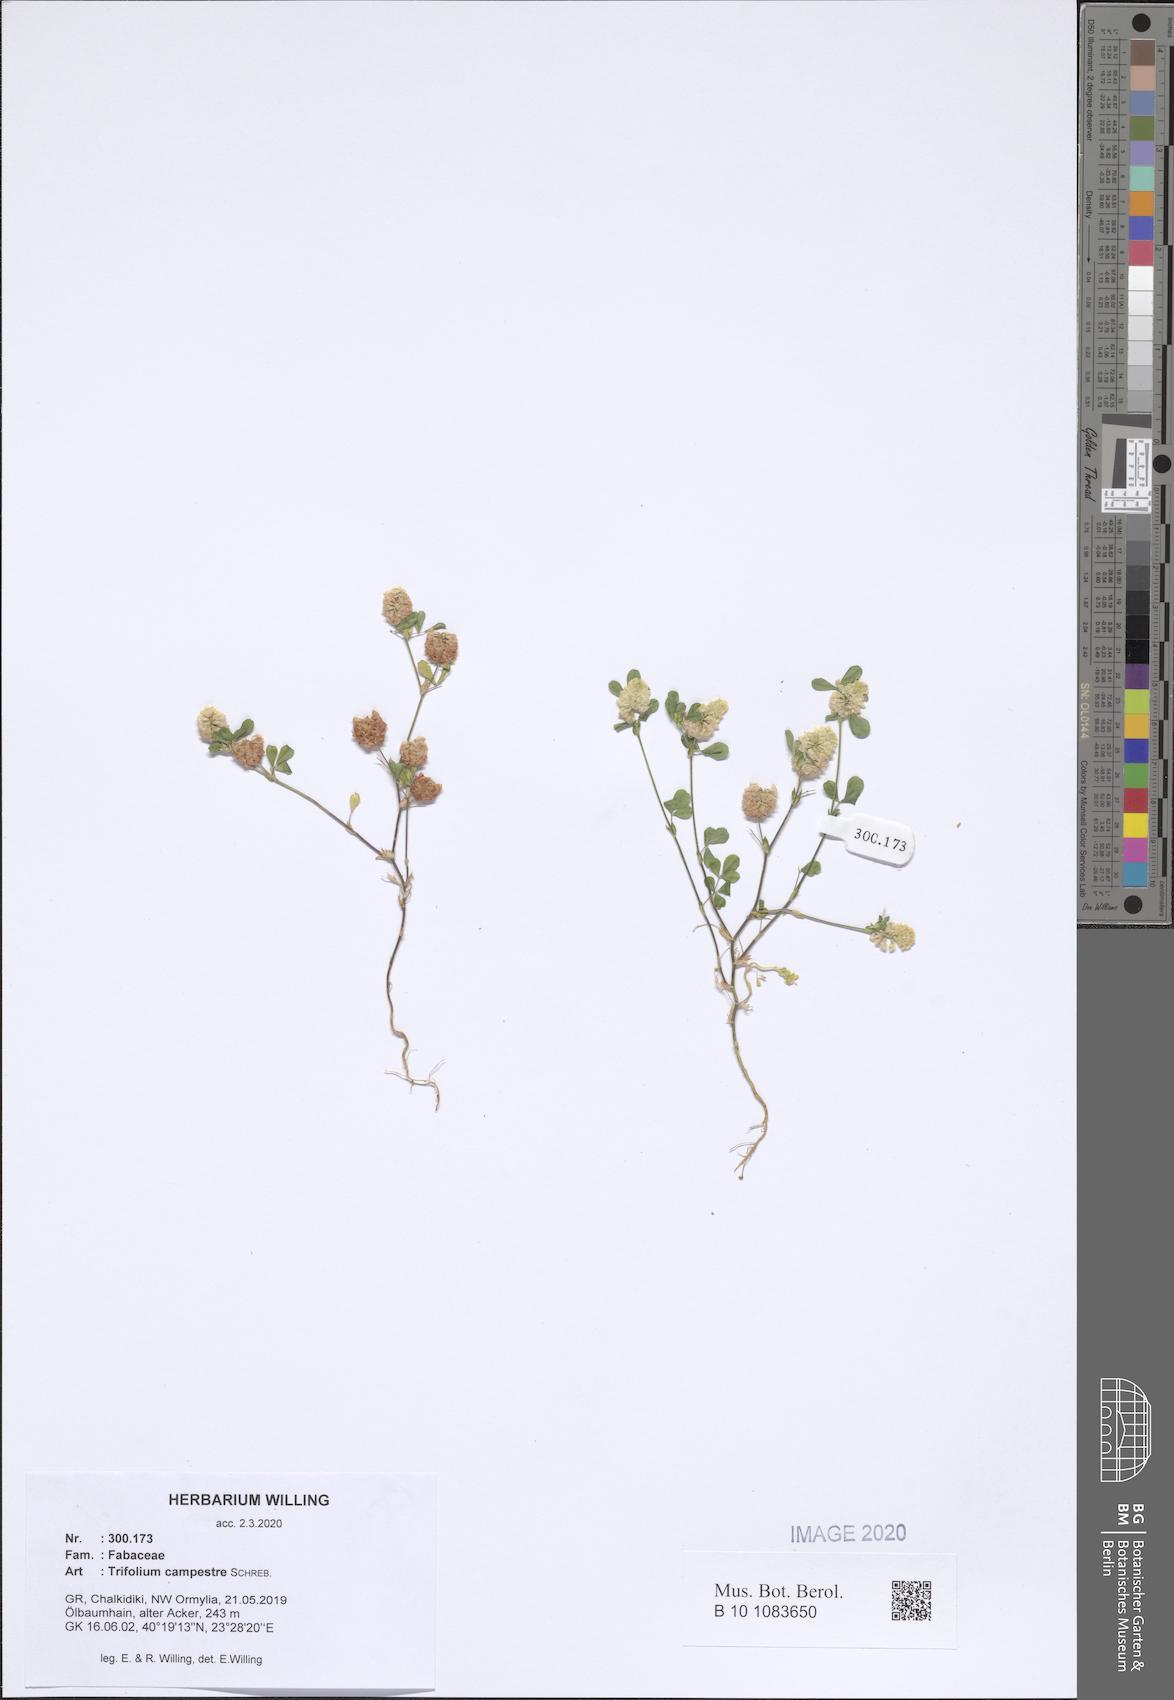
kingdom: Plantae
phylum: Tracheophyta
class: Magnoliopsida
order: Fabales
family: Fabaceae
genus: Trifolium
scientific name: Trifolium campestre
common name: Field clover
